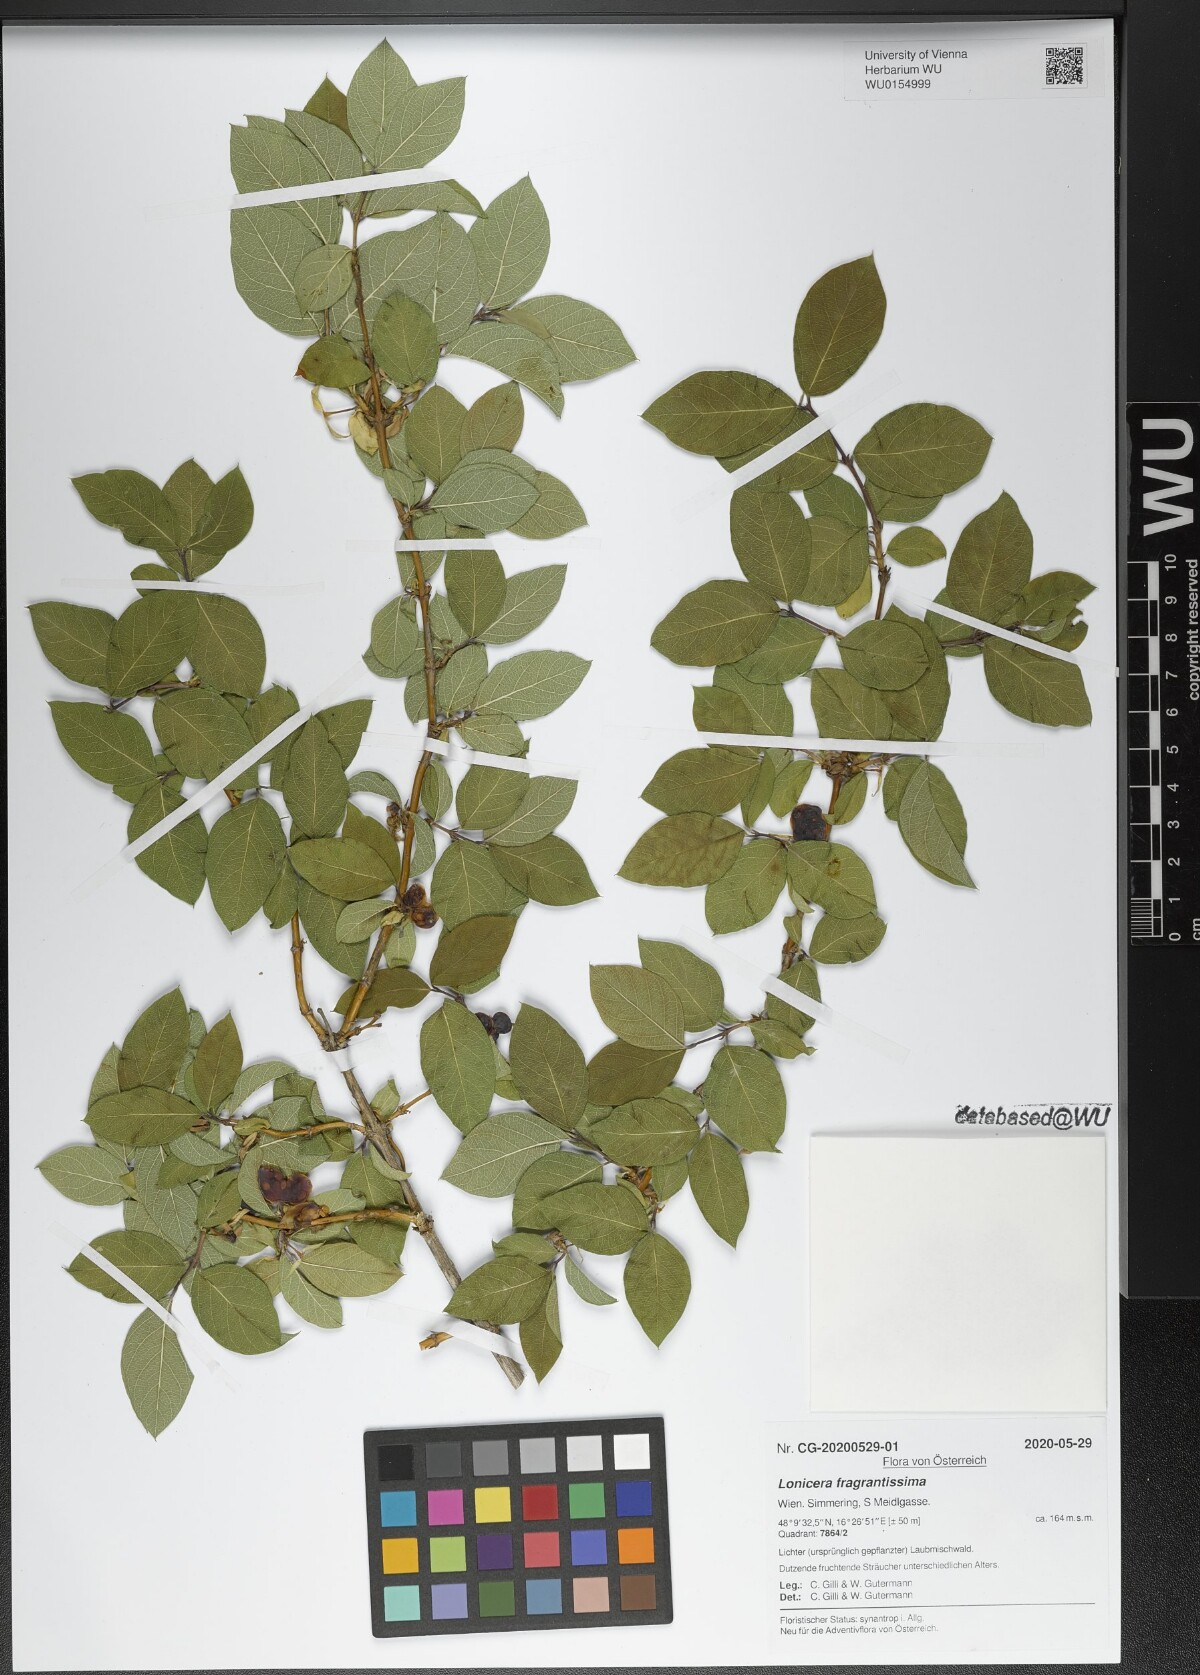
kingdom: Plantae
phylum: Tracheophyta
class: Magnoliopsida
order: Dipsacales
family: Caprifoliaceae
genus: Lonicera
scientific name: Lonicera fragrantissima
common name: Fragrant honeysuckle
